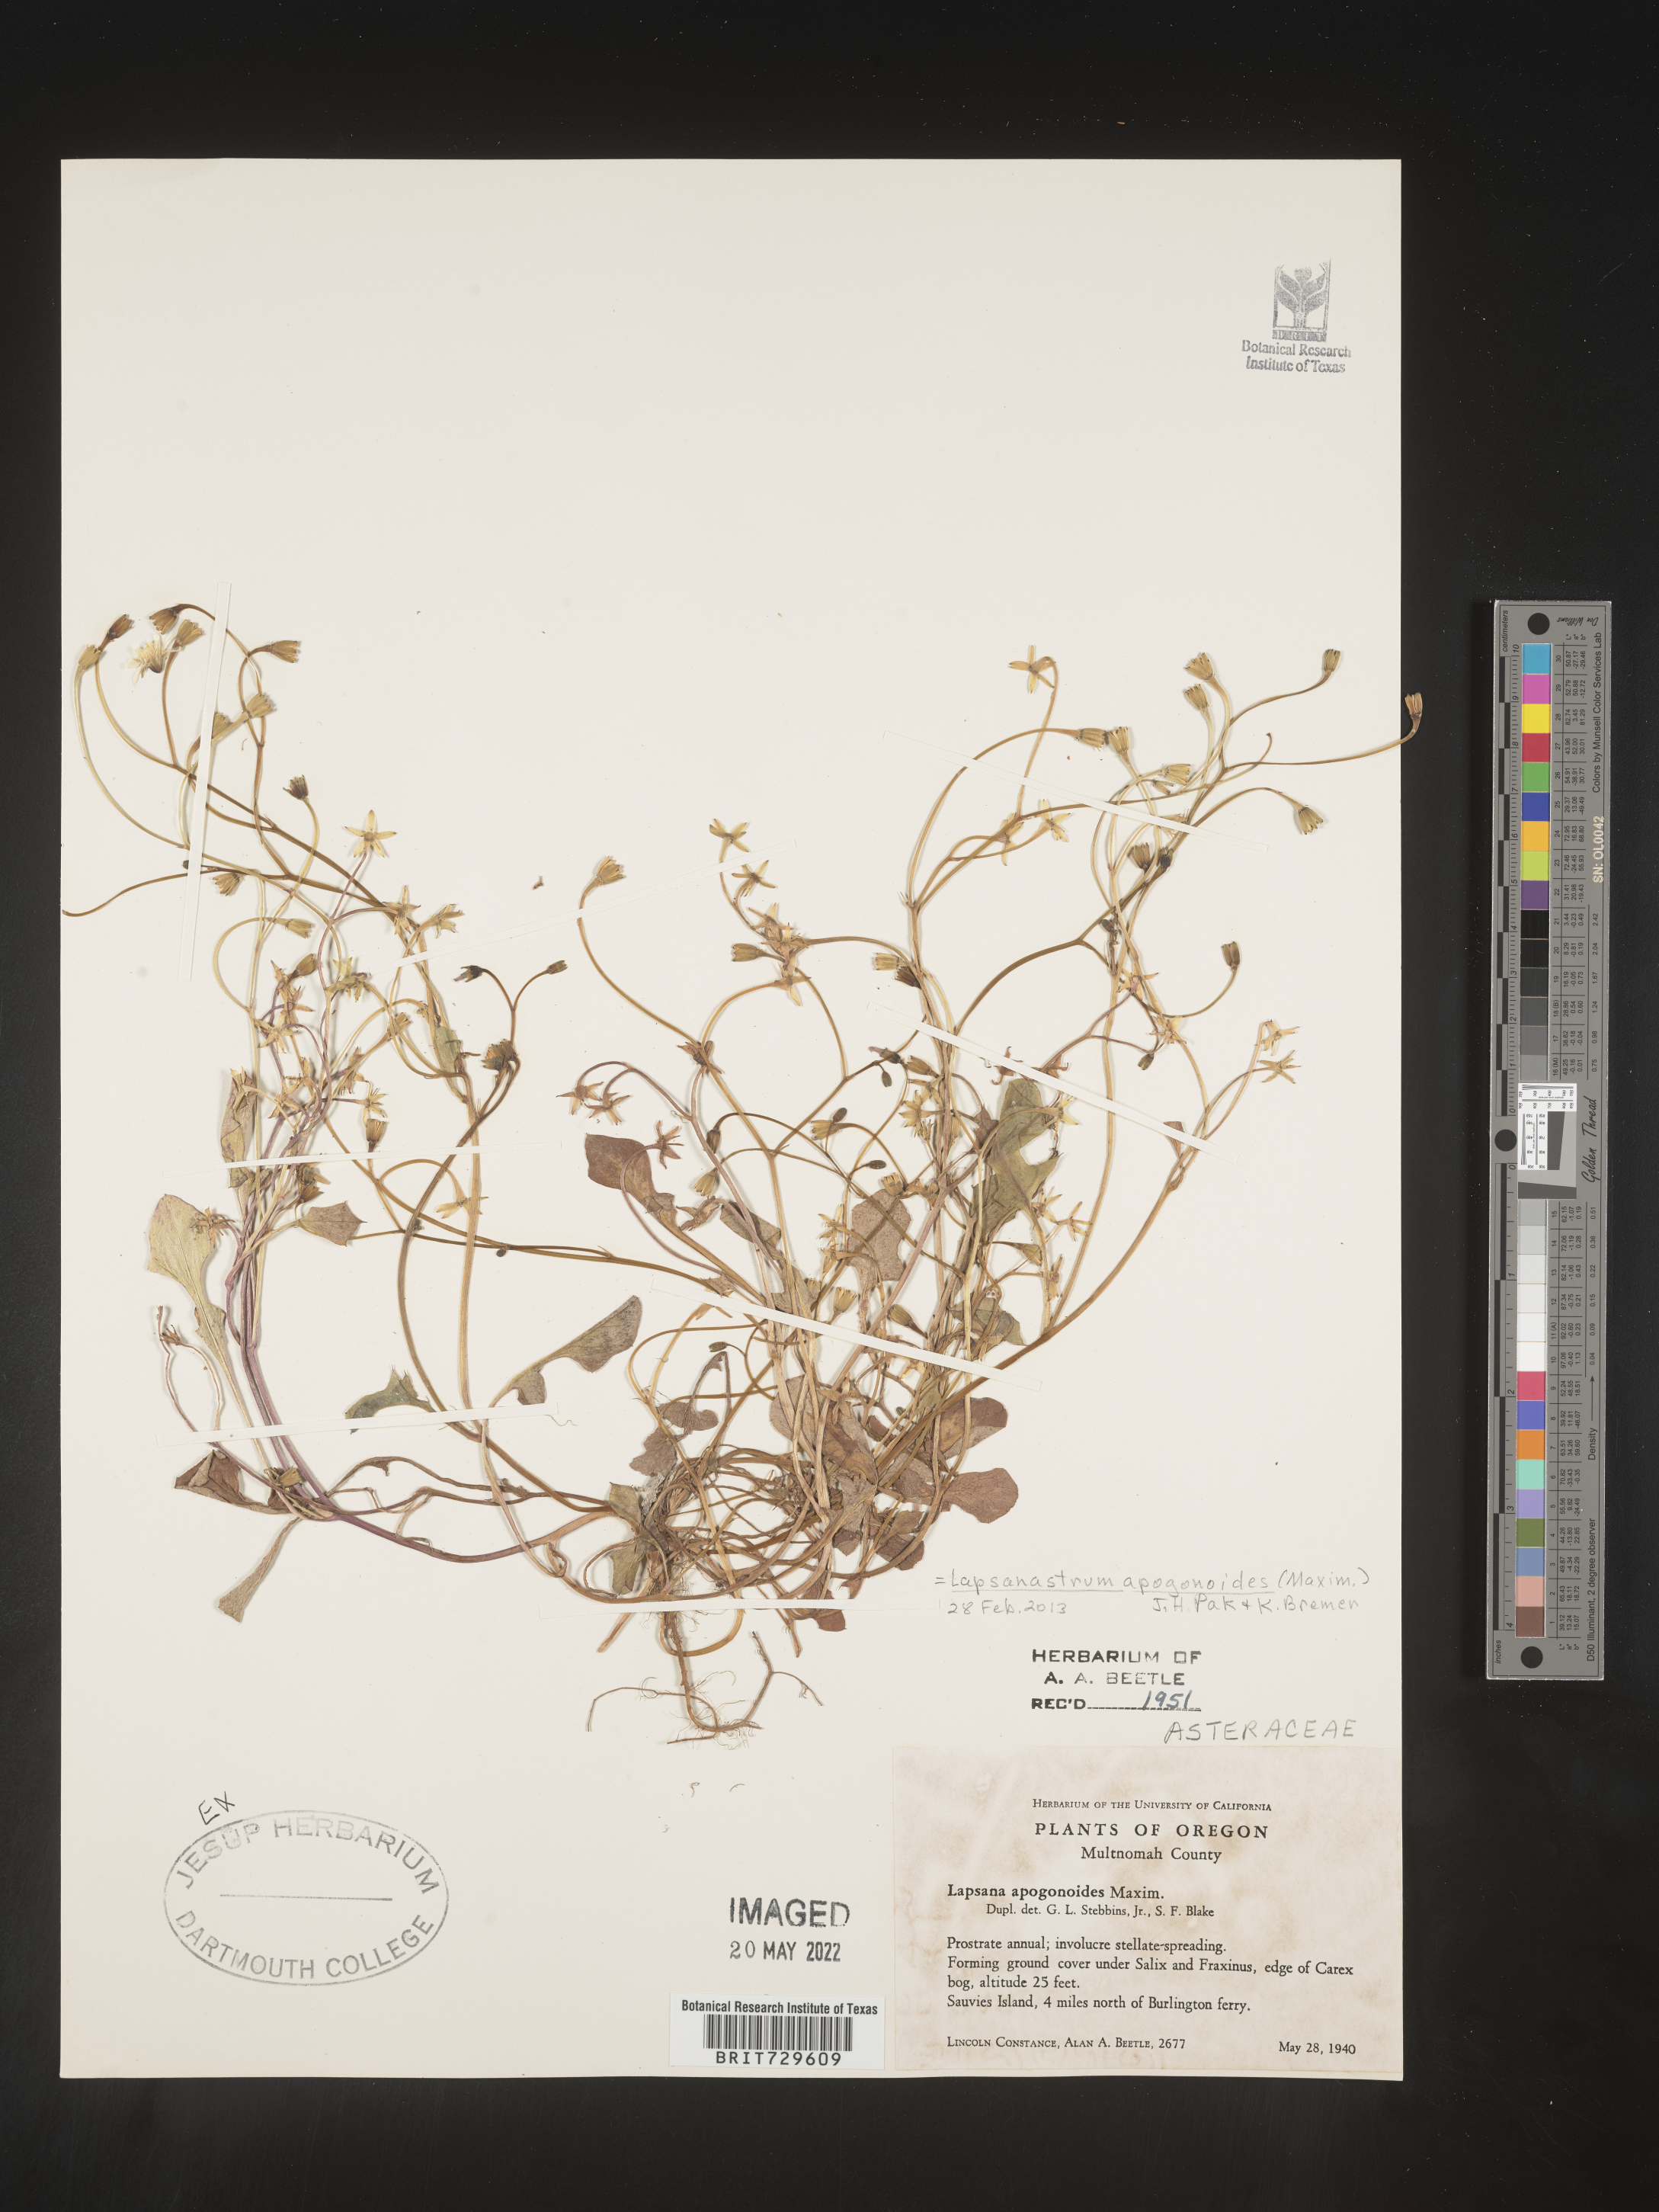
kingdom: Plantae
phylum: Tracheophyta
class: Magnoliopsida
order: Asterales
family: Asteraceae
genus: Lapsana
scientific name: Lapsana
